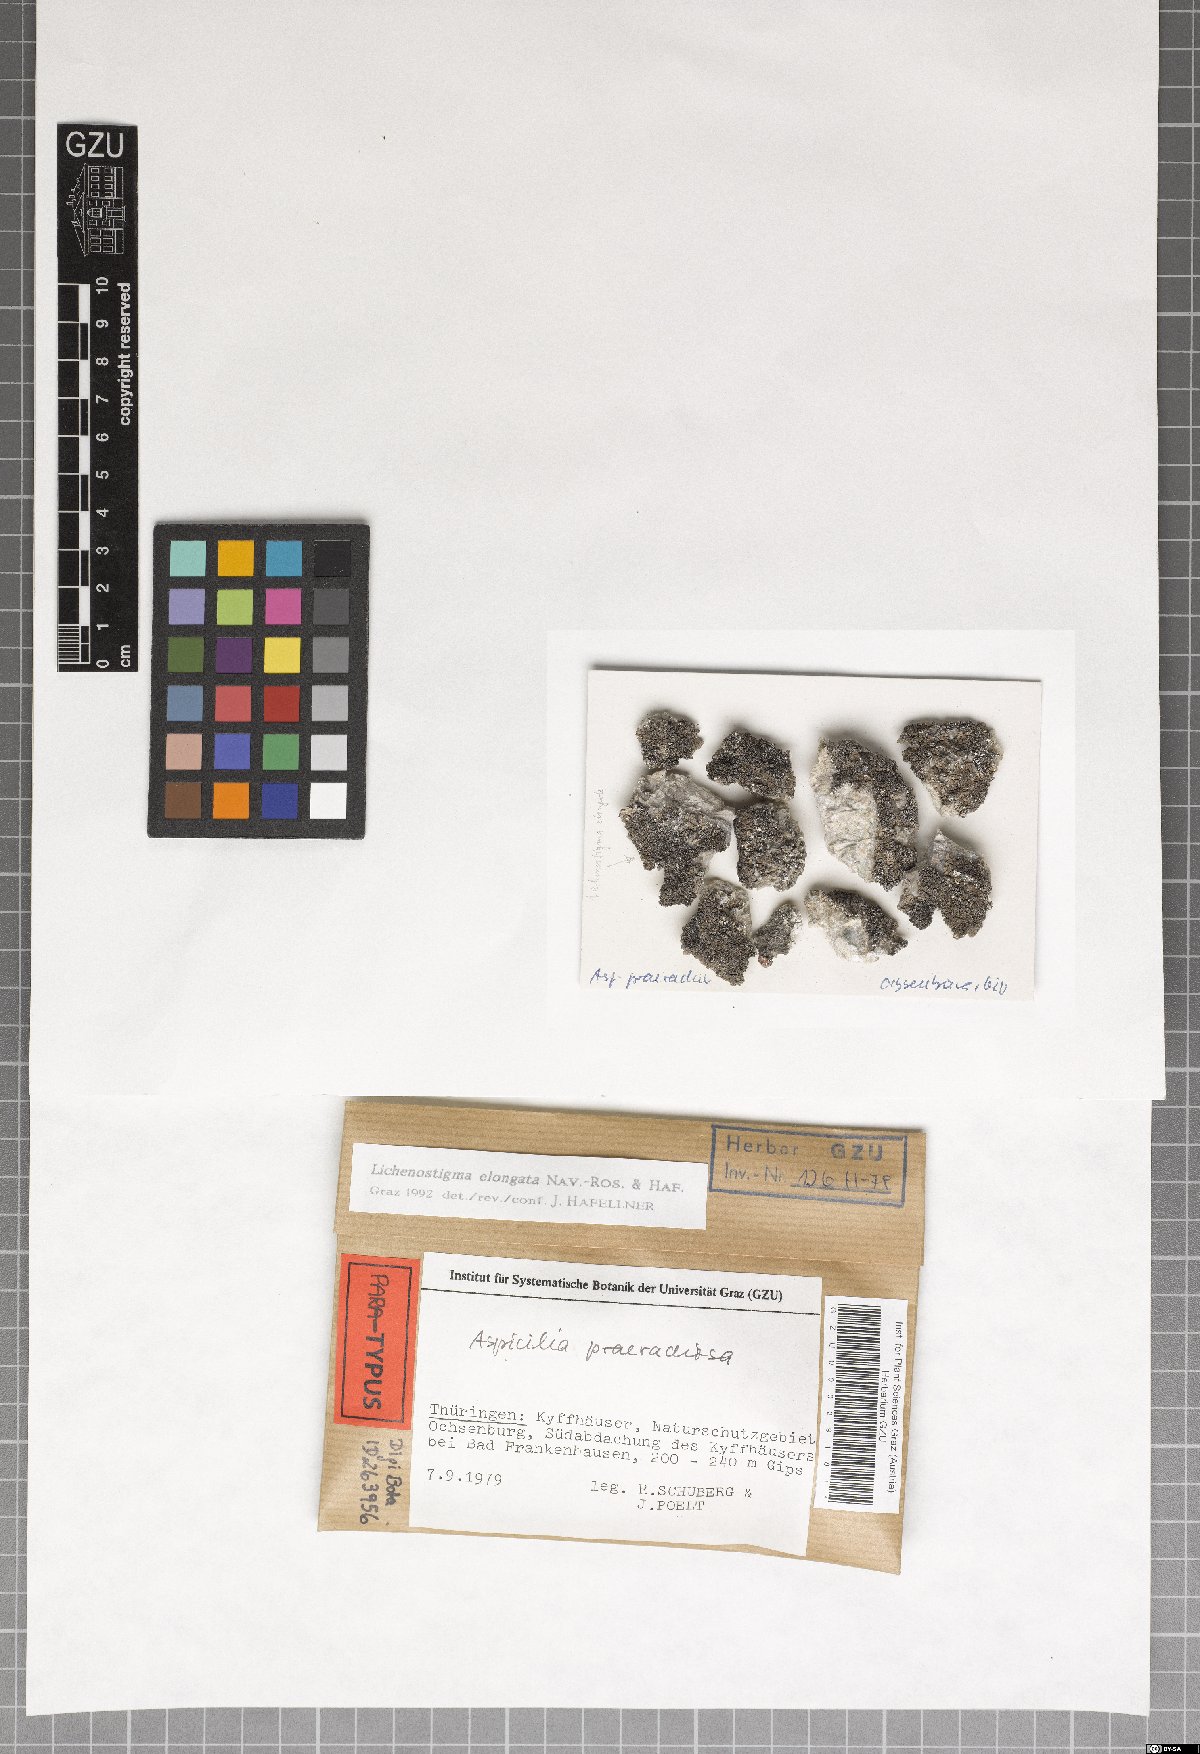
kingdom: Fungi
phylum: Ascomycota
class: Arthoniomycetes
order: Lichenostigmatales
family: Phaeococcomycetaceae
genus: Lichenostigma
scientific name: Lichenostigma elongatum
